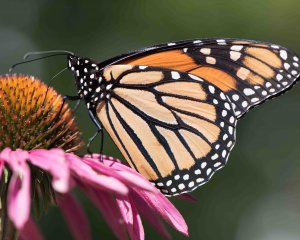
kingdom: Animalia
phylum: Arthropoda
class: Insecta
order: Lepidoptera
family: Nymphalidae
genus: Danaus
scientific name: Danaus plexippus
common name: Monarch
